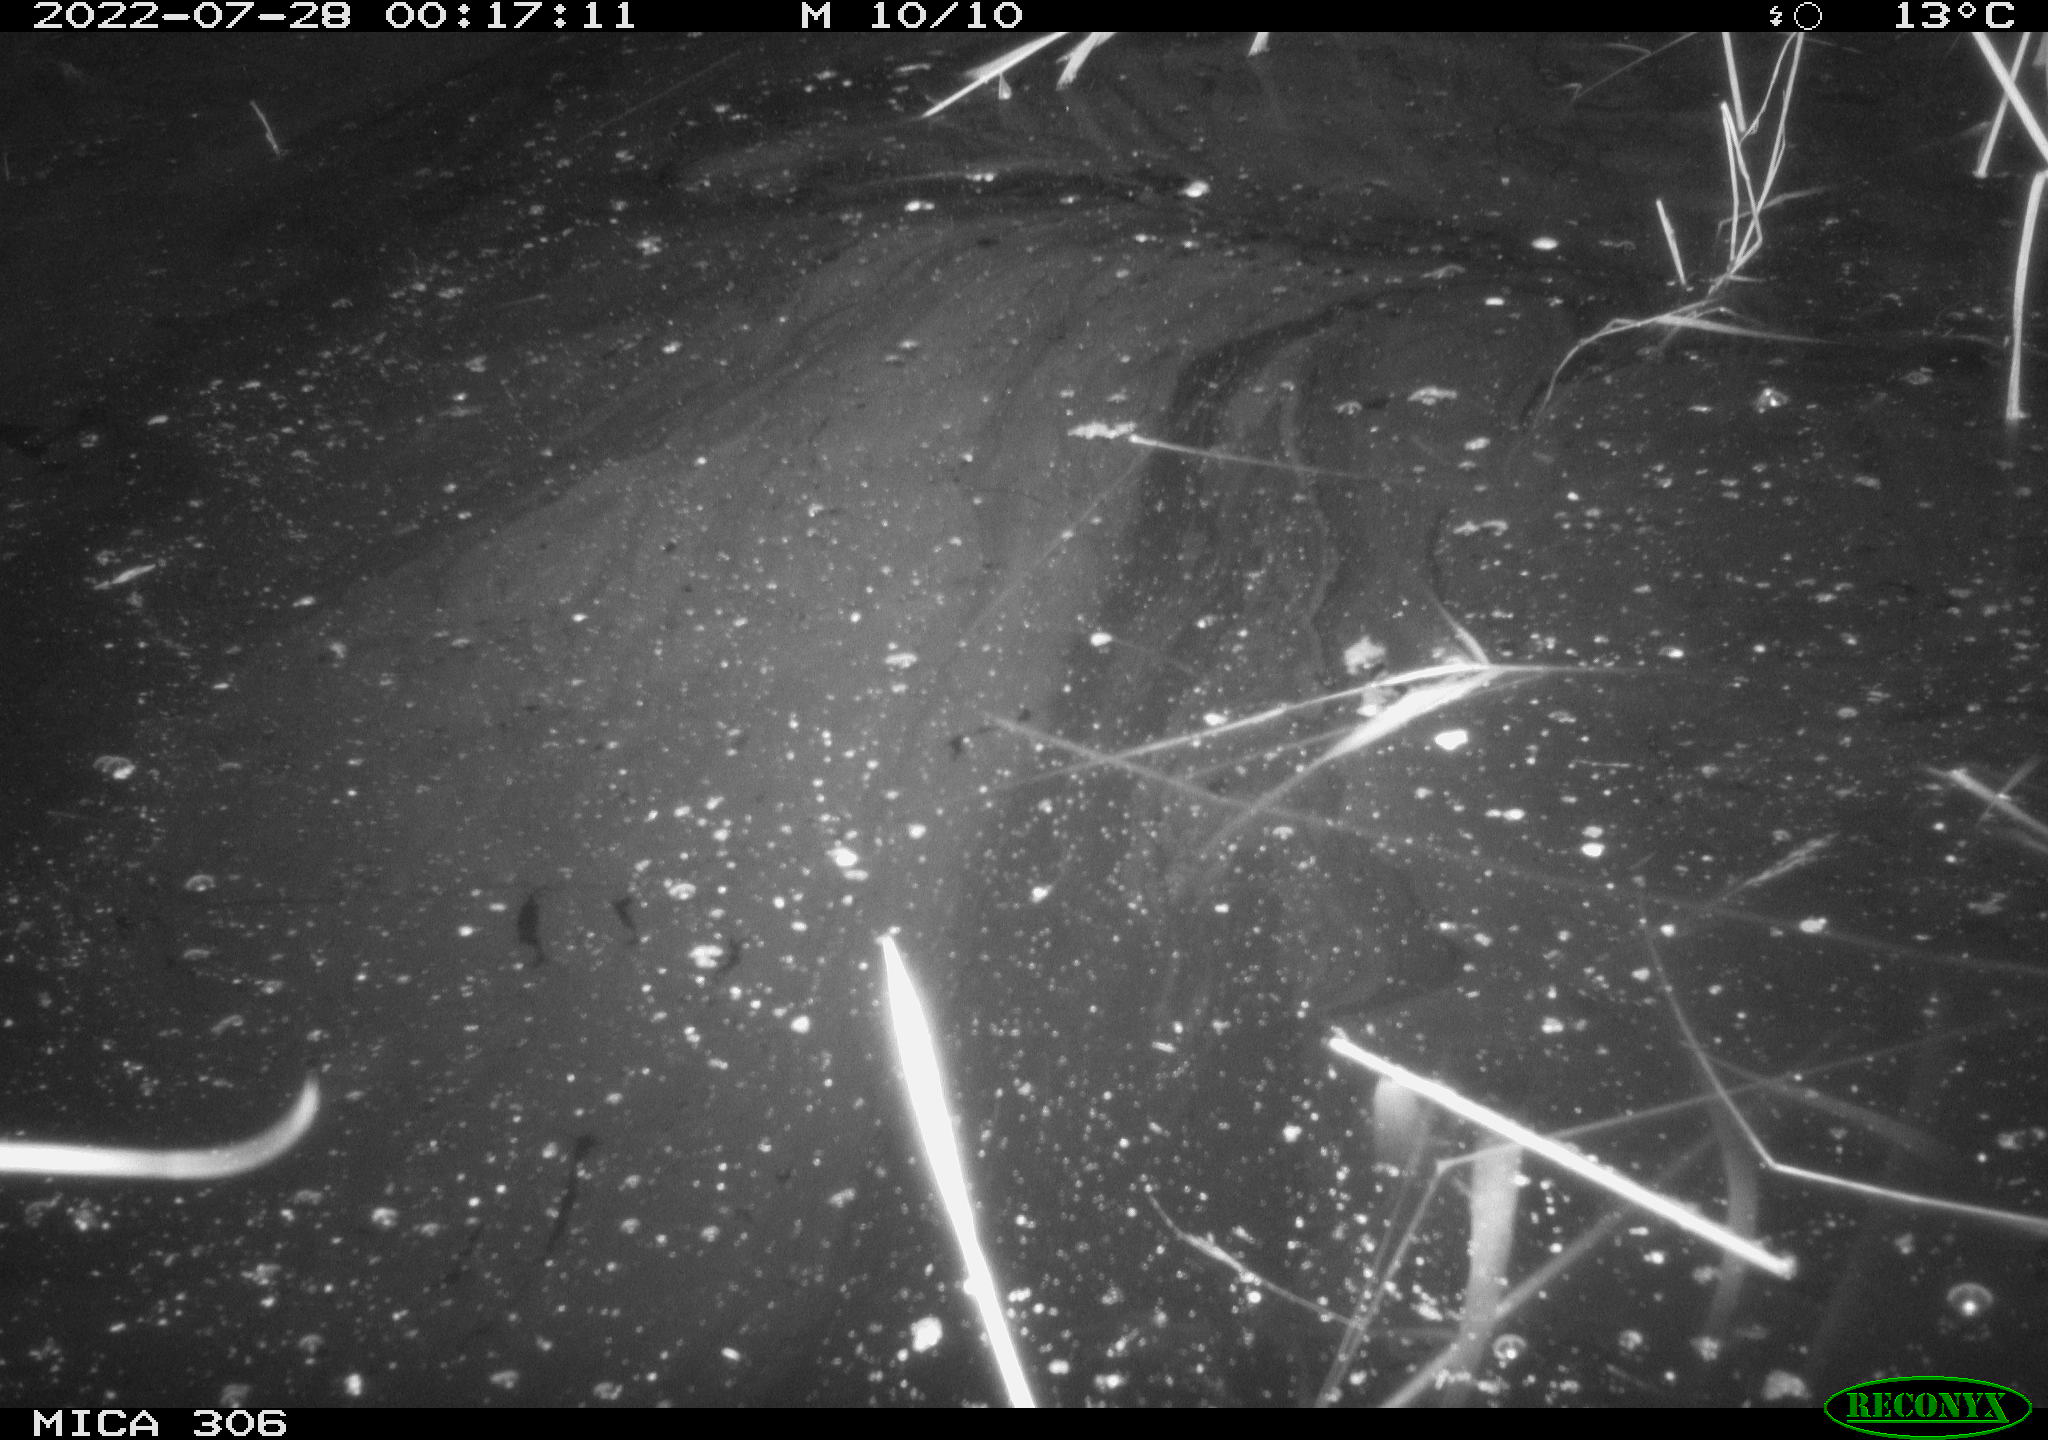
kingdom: Animalia
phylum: Chordata
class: Mammalia
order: Rodentia
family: Cricetidae
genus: Ondatra
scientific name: Ondatra zibethicus
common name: Muskrat
